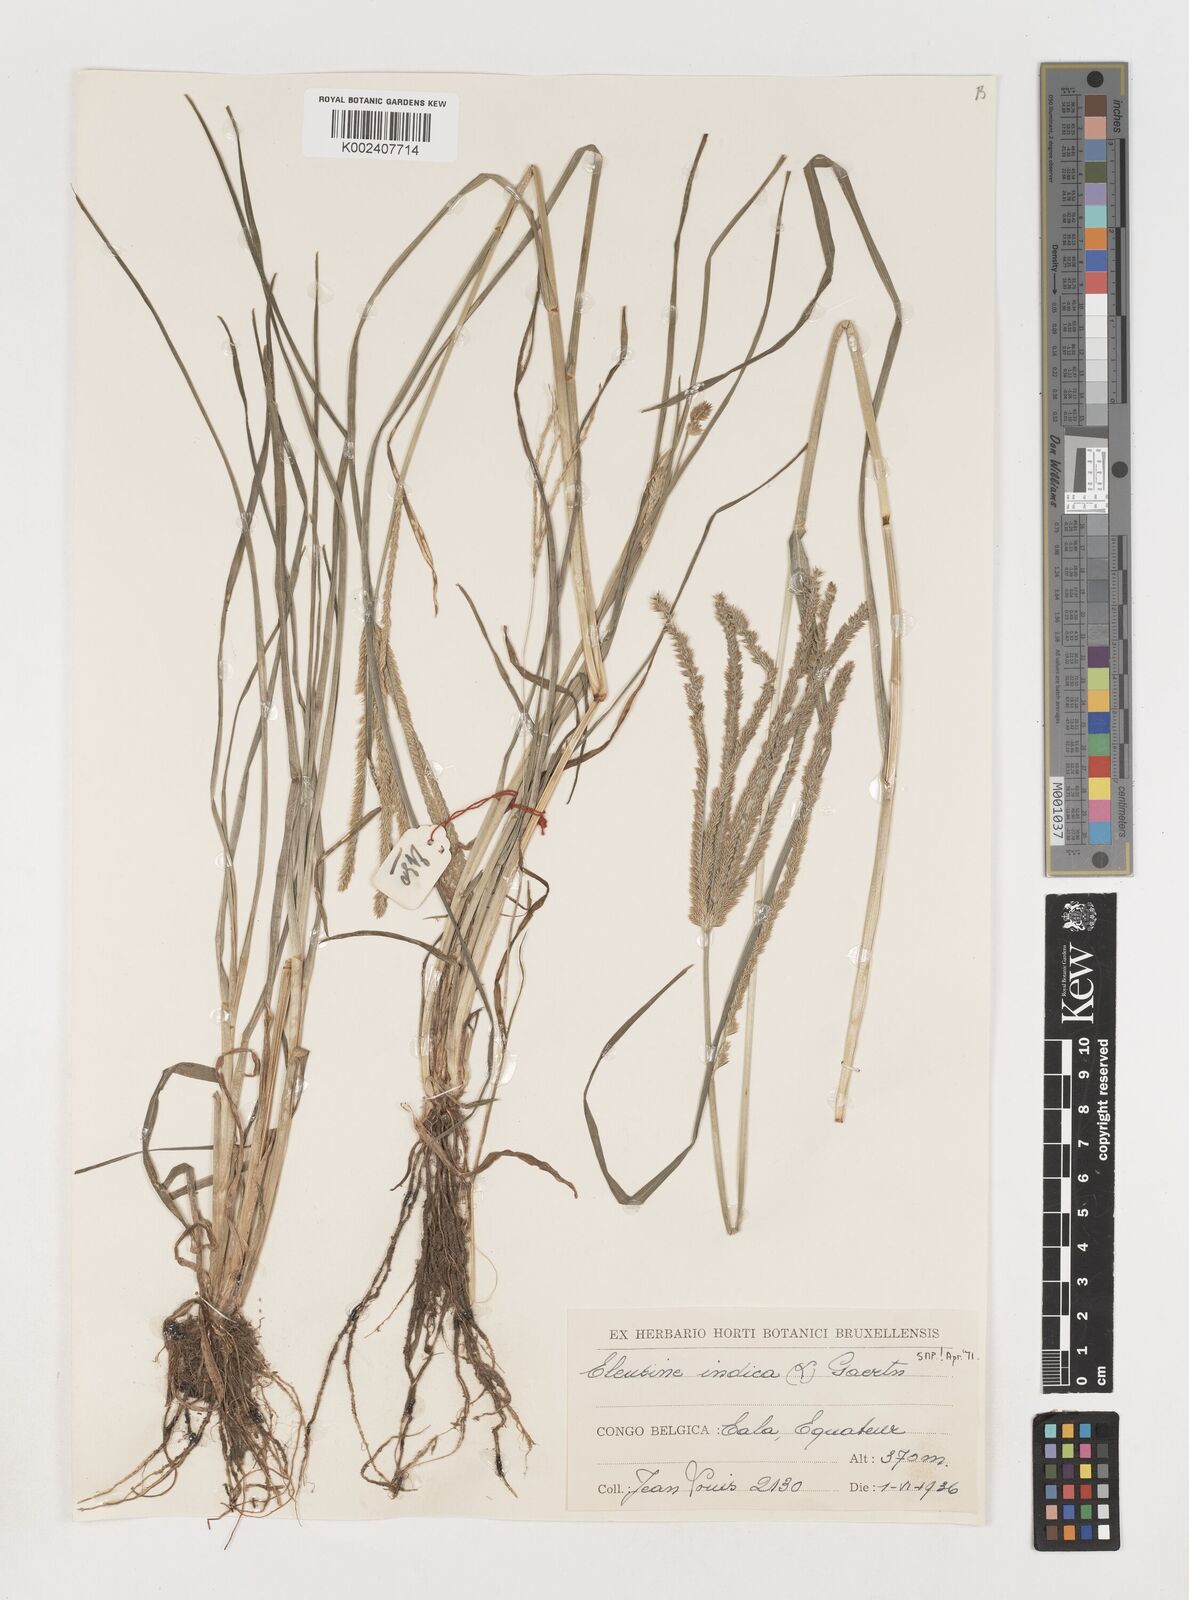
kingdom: Plantae
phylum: Tracheophyta
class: Liliopsida
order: Poales
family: Poaceae
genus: Eleusine
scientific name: Eleusine indica
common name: Yard-grass
